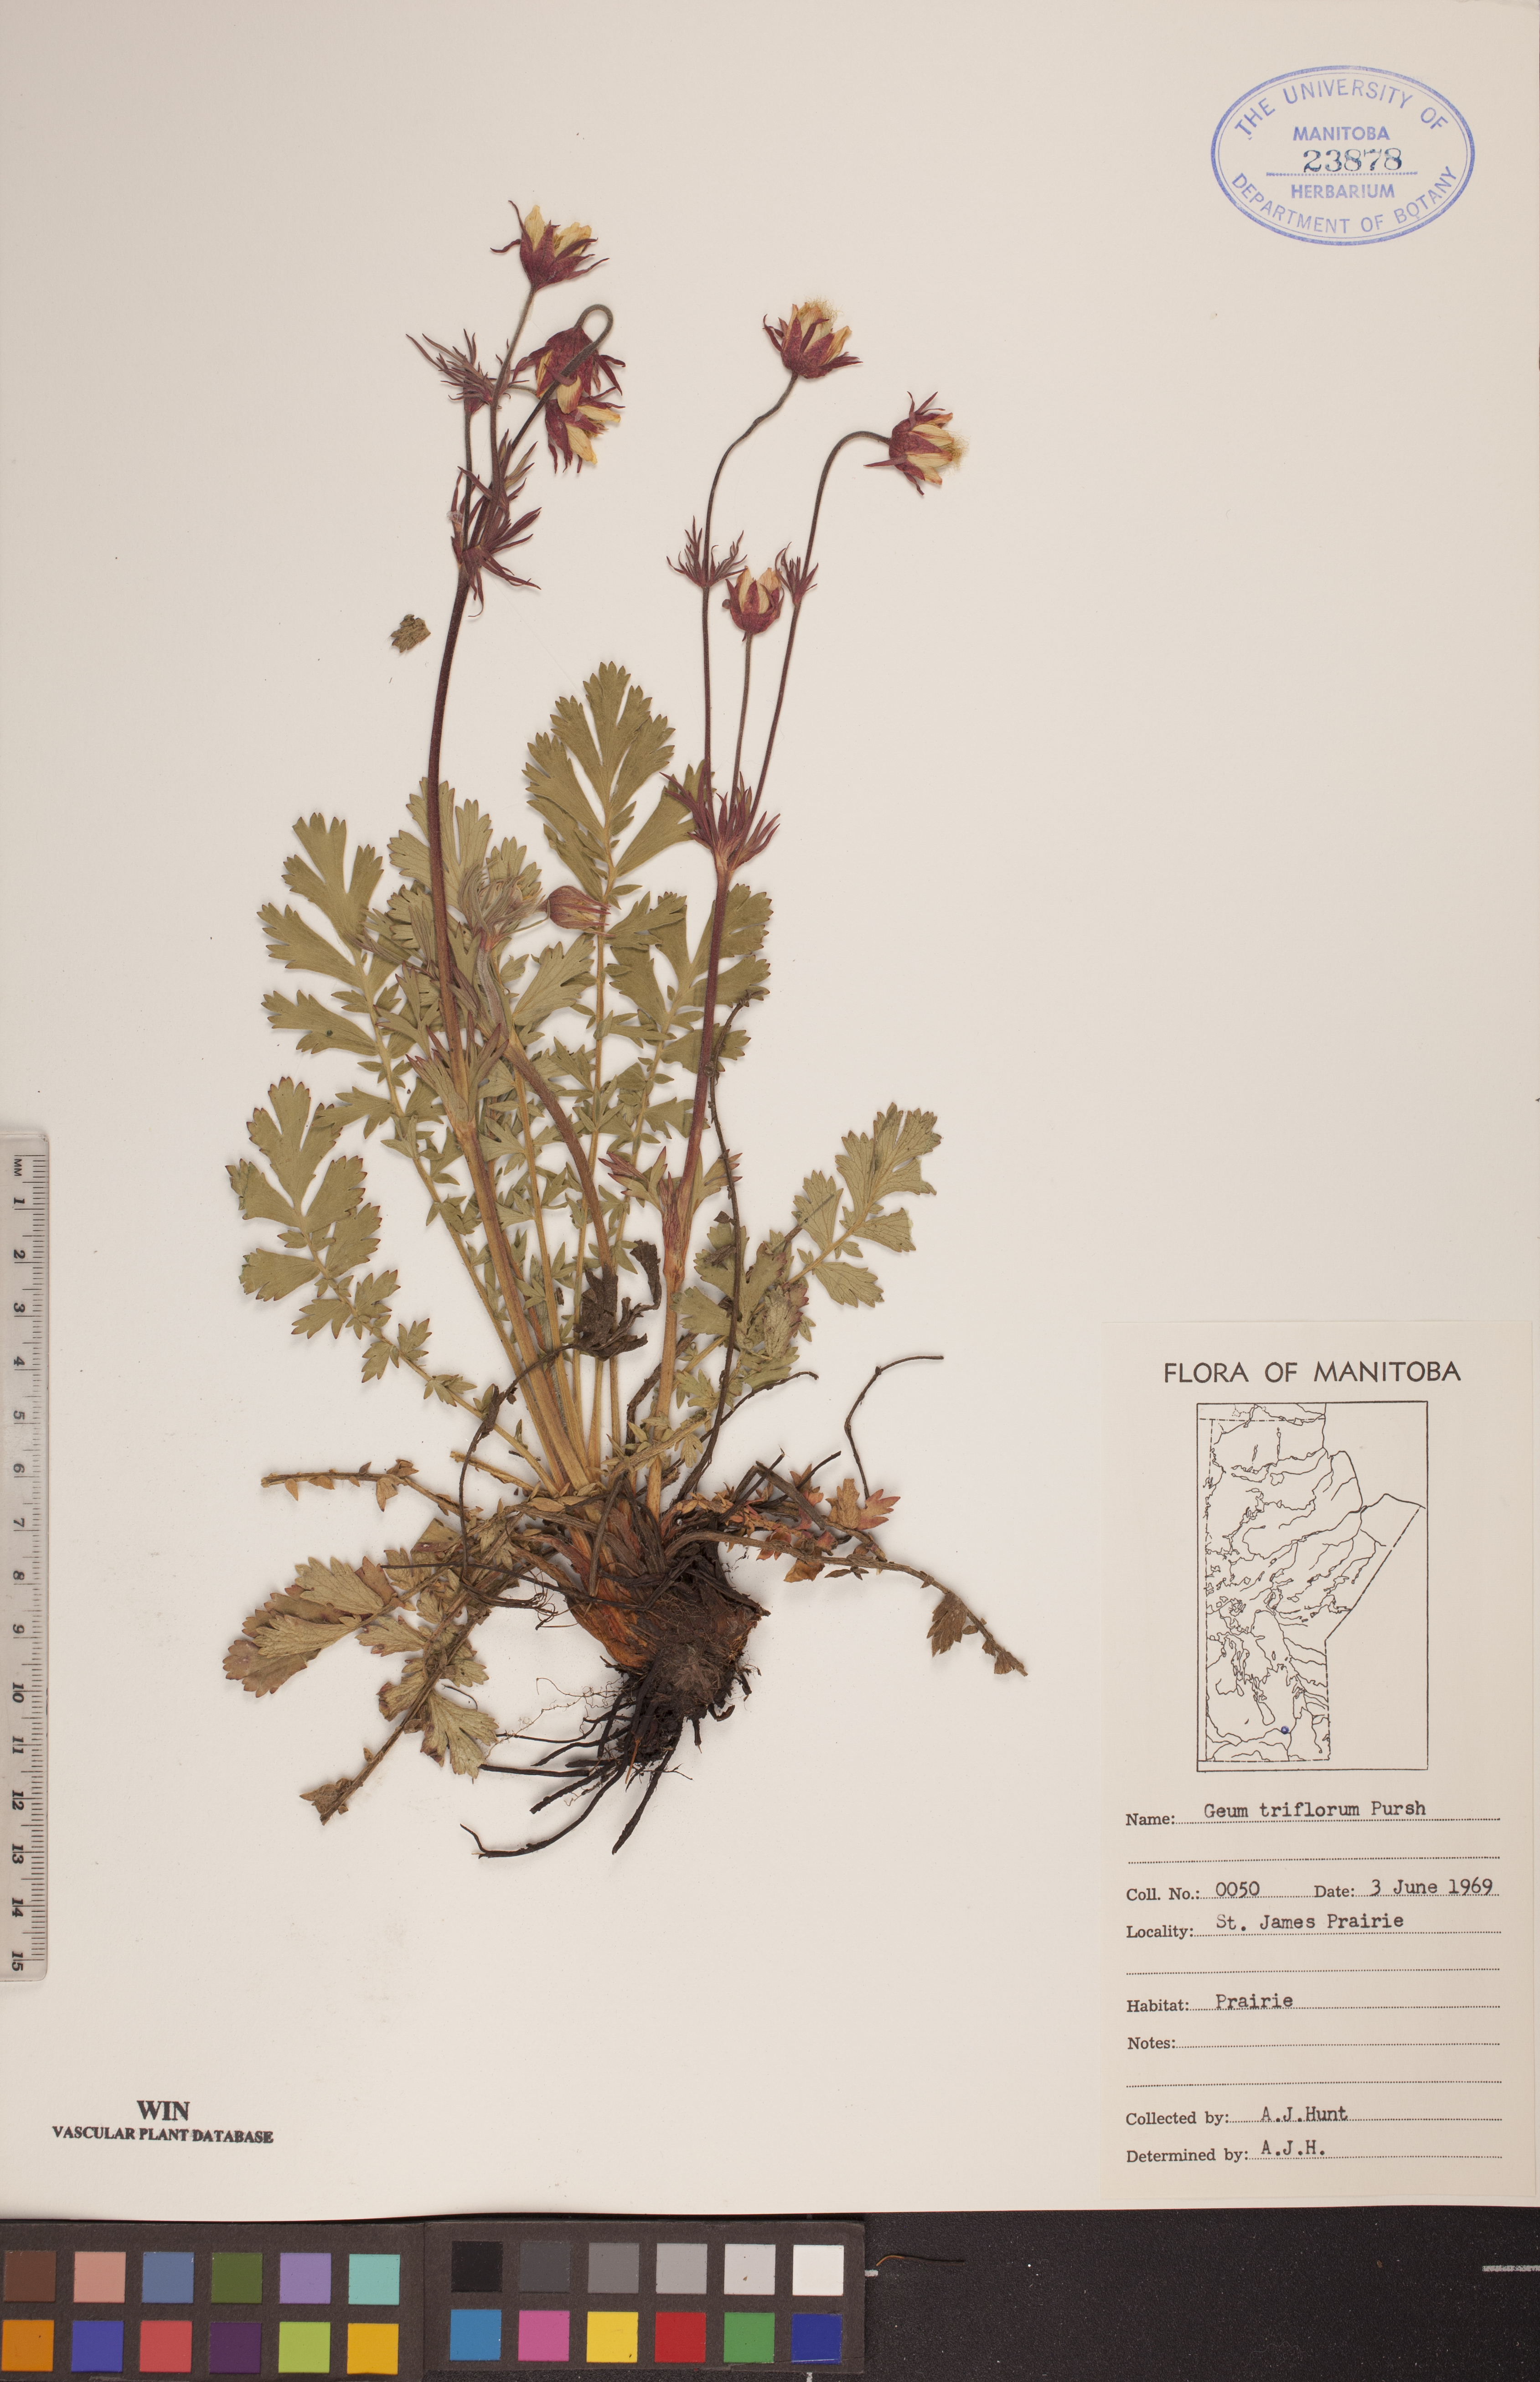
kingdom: Plantae
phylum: Tracheophyta
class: Magnoliopsida
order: Rosales
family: Rosaceae
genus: Geum
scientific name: Geum triflorum
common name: Old man's whiskers
